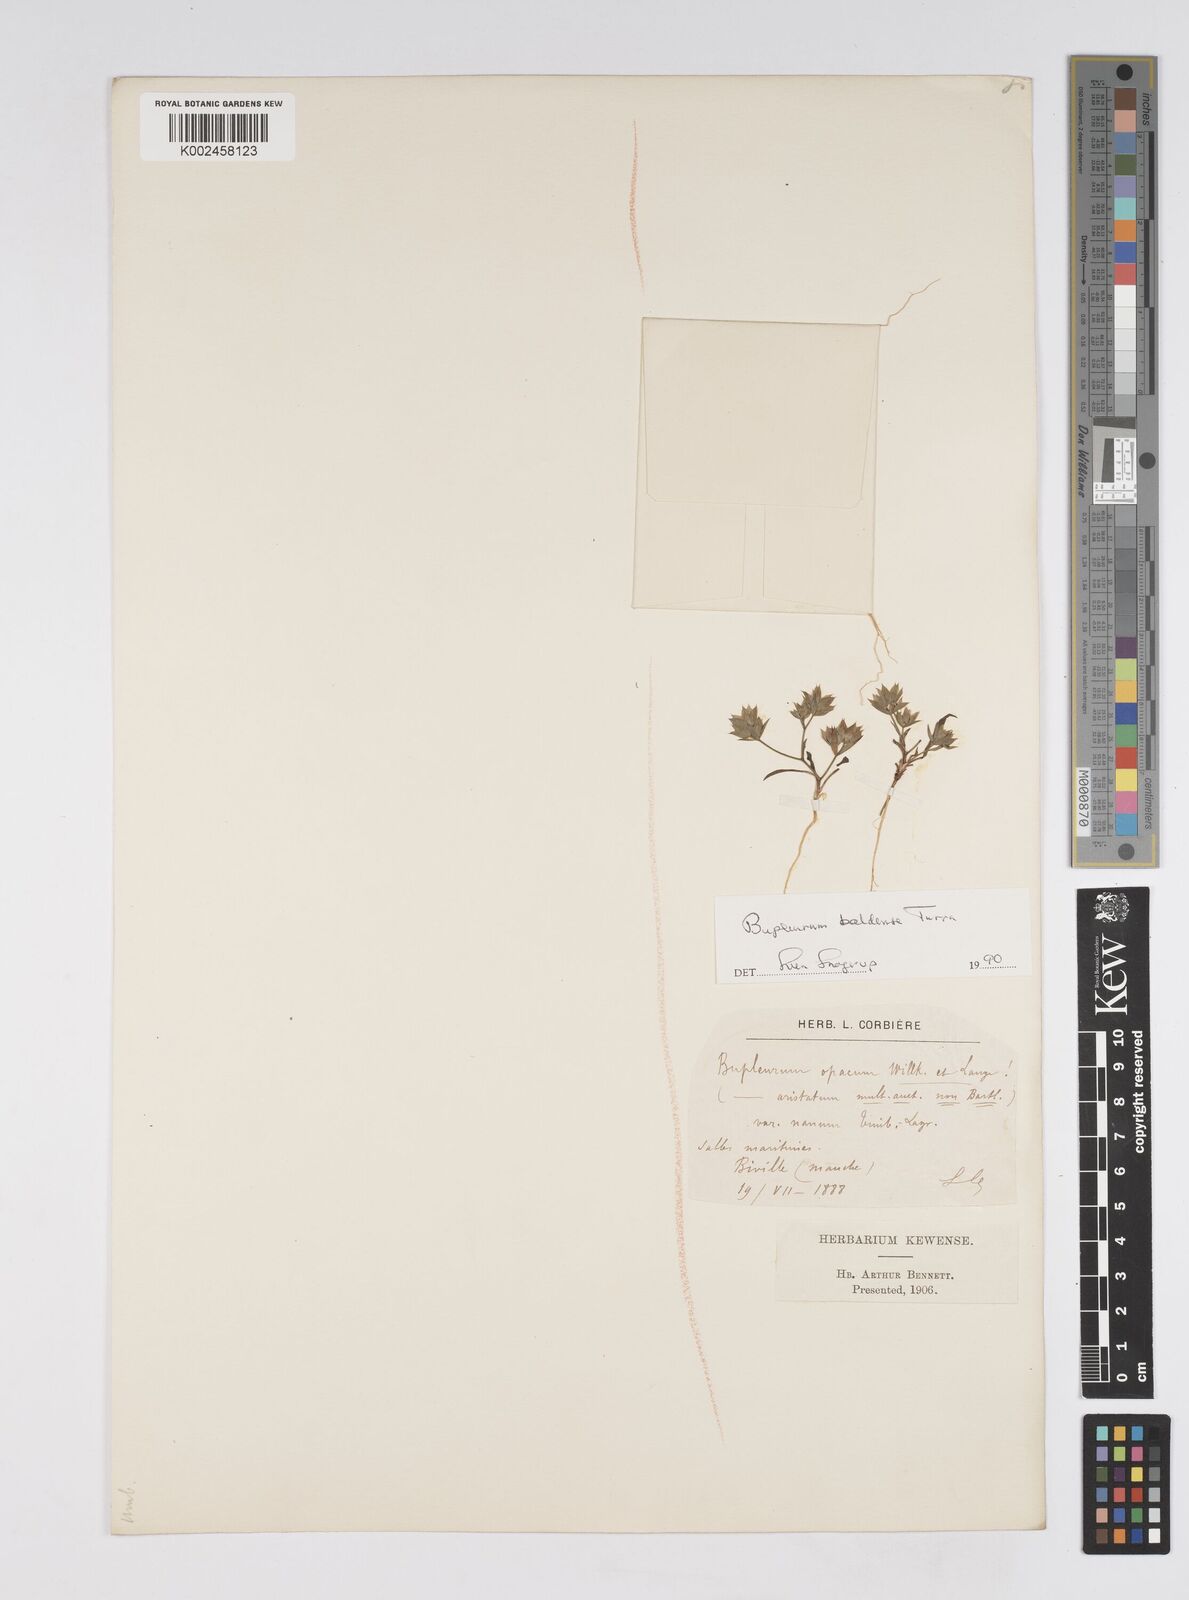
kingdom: Plantae
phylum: Tracheophyta
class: Magnoliopsida
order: Apiales
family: Apiaceae
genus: Bupleurum
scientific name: Bupleurum baldense
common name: Small hare's-ear
